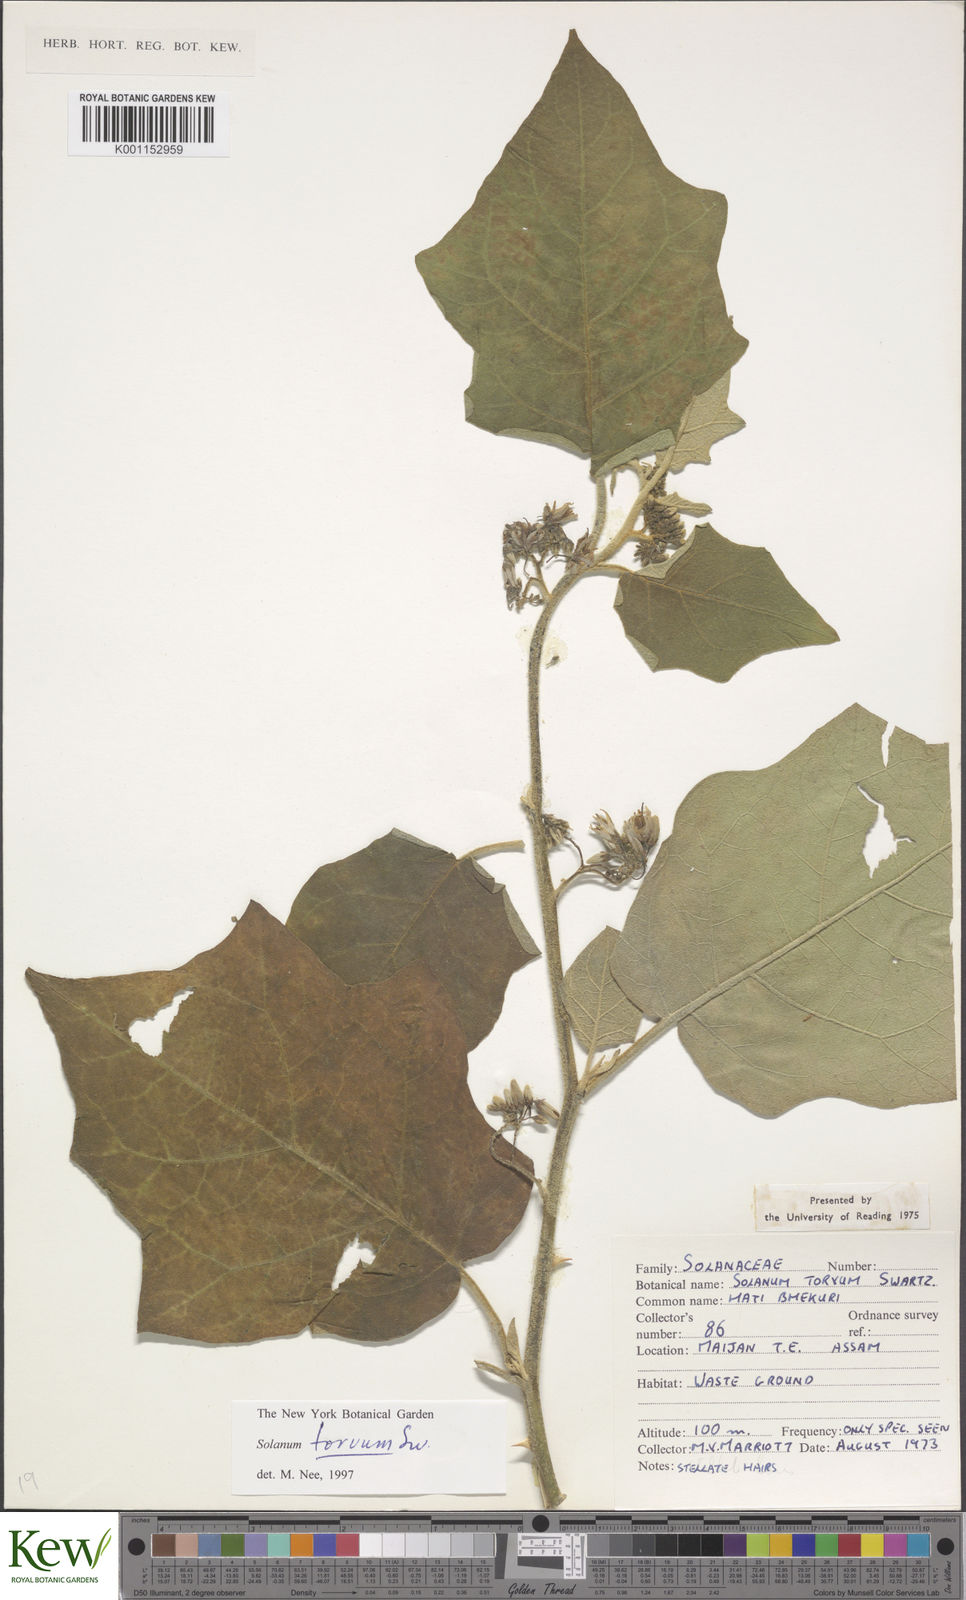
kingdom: Plantae
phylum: Tracheophyta
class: Magnoliopsida
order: Solanales
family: Solanaceae
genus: Solanum
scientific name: Solanum torvum
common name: Turkey berry
